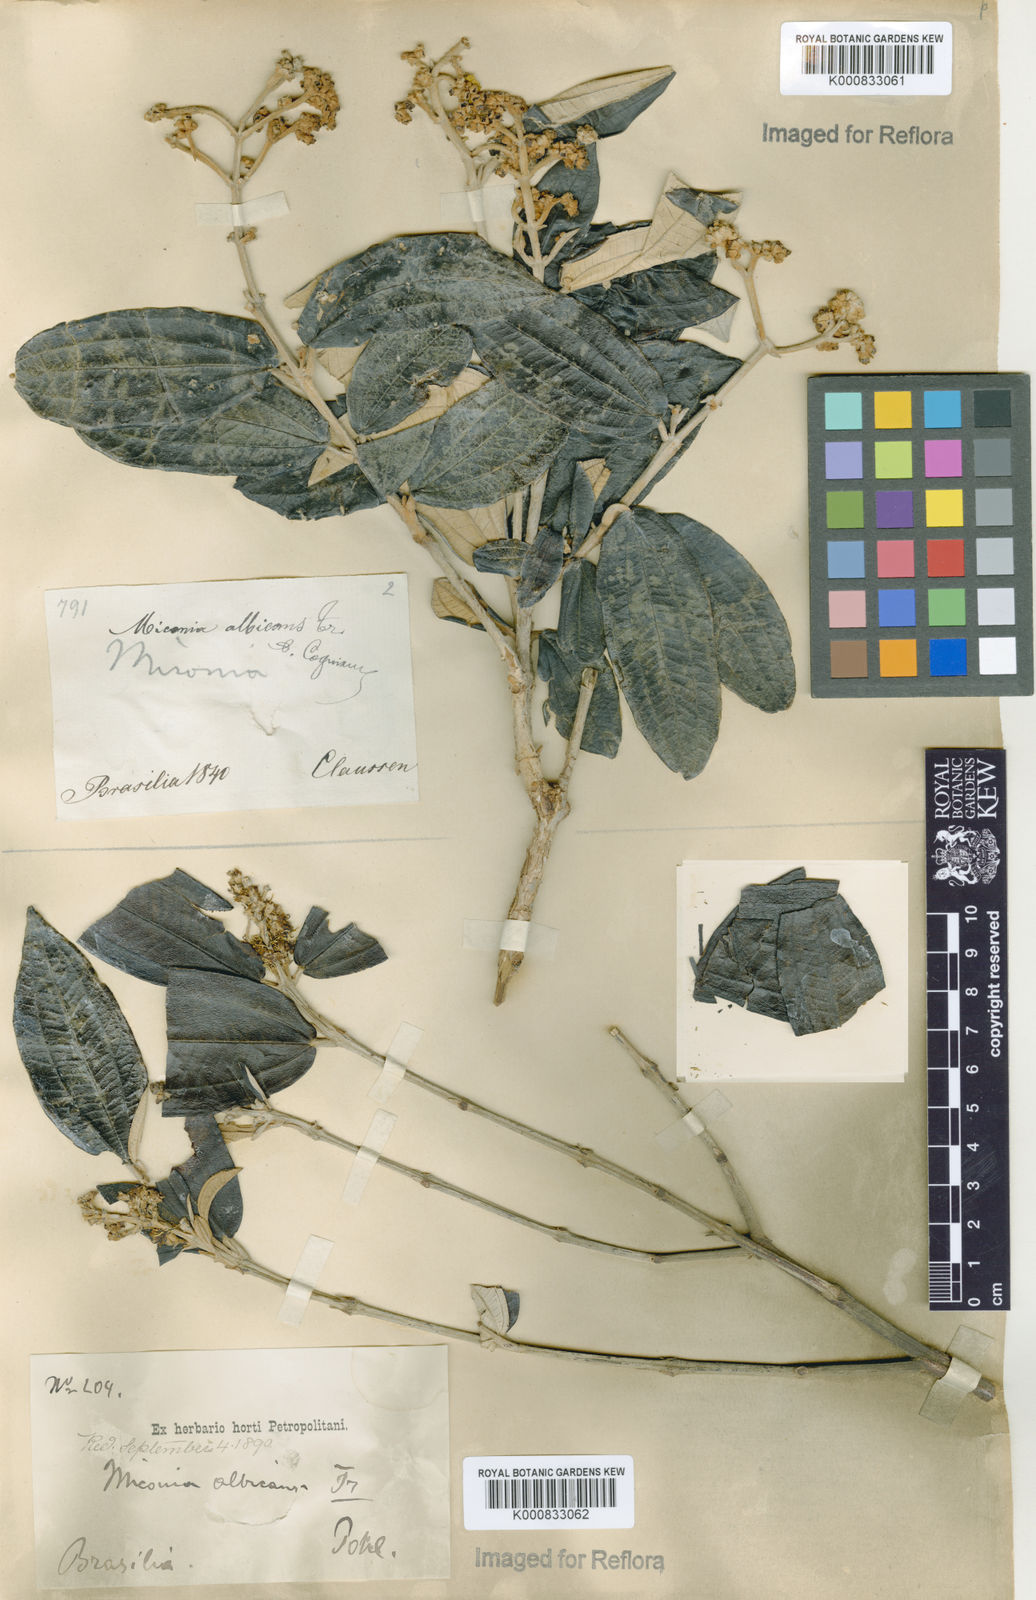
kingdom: Plantae
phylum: Tracheophyta
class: Magnoliopsida
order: Myrtales
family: Melastomataceae
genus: Miconia
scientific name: Miconia albicans
